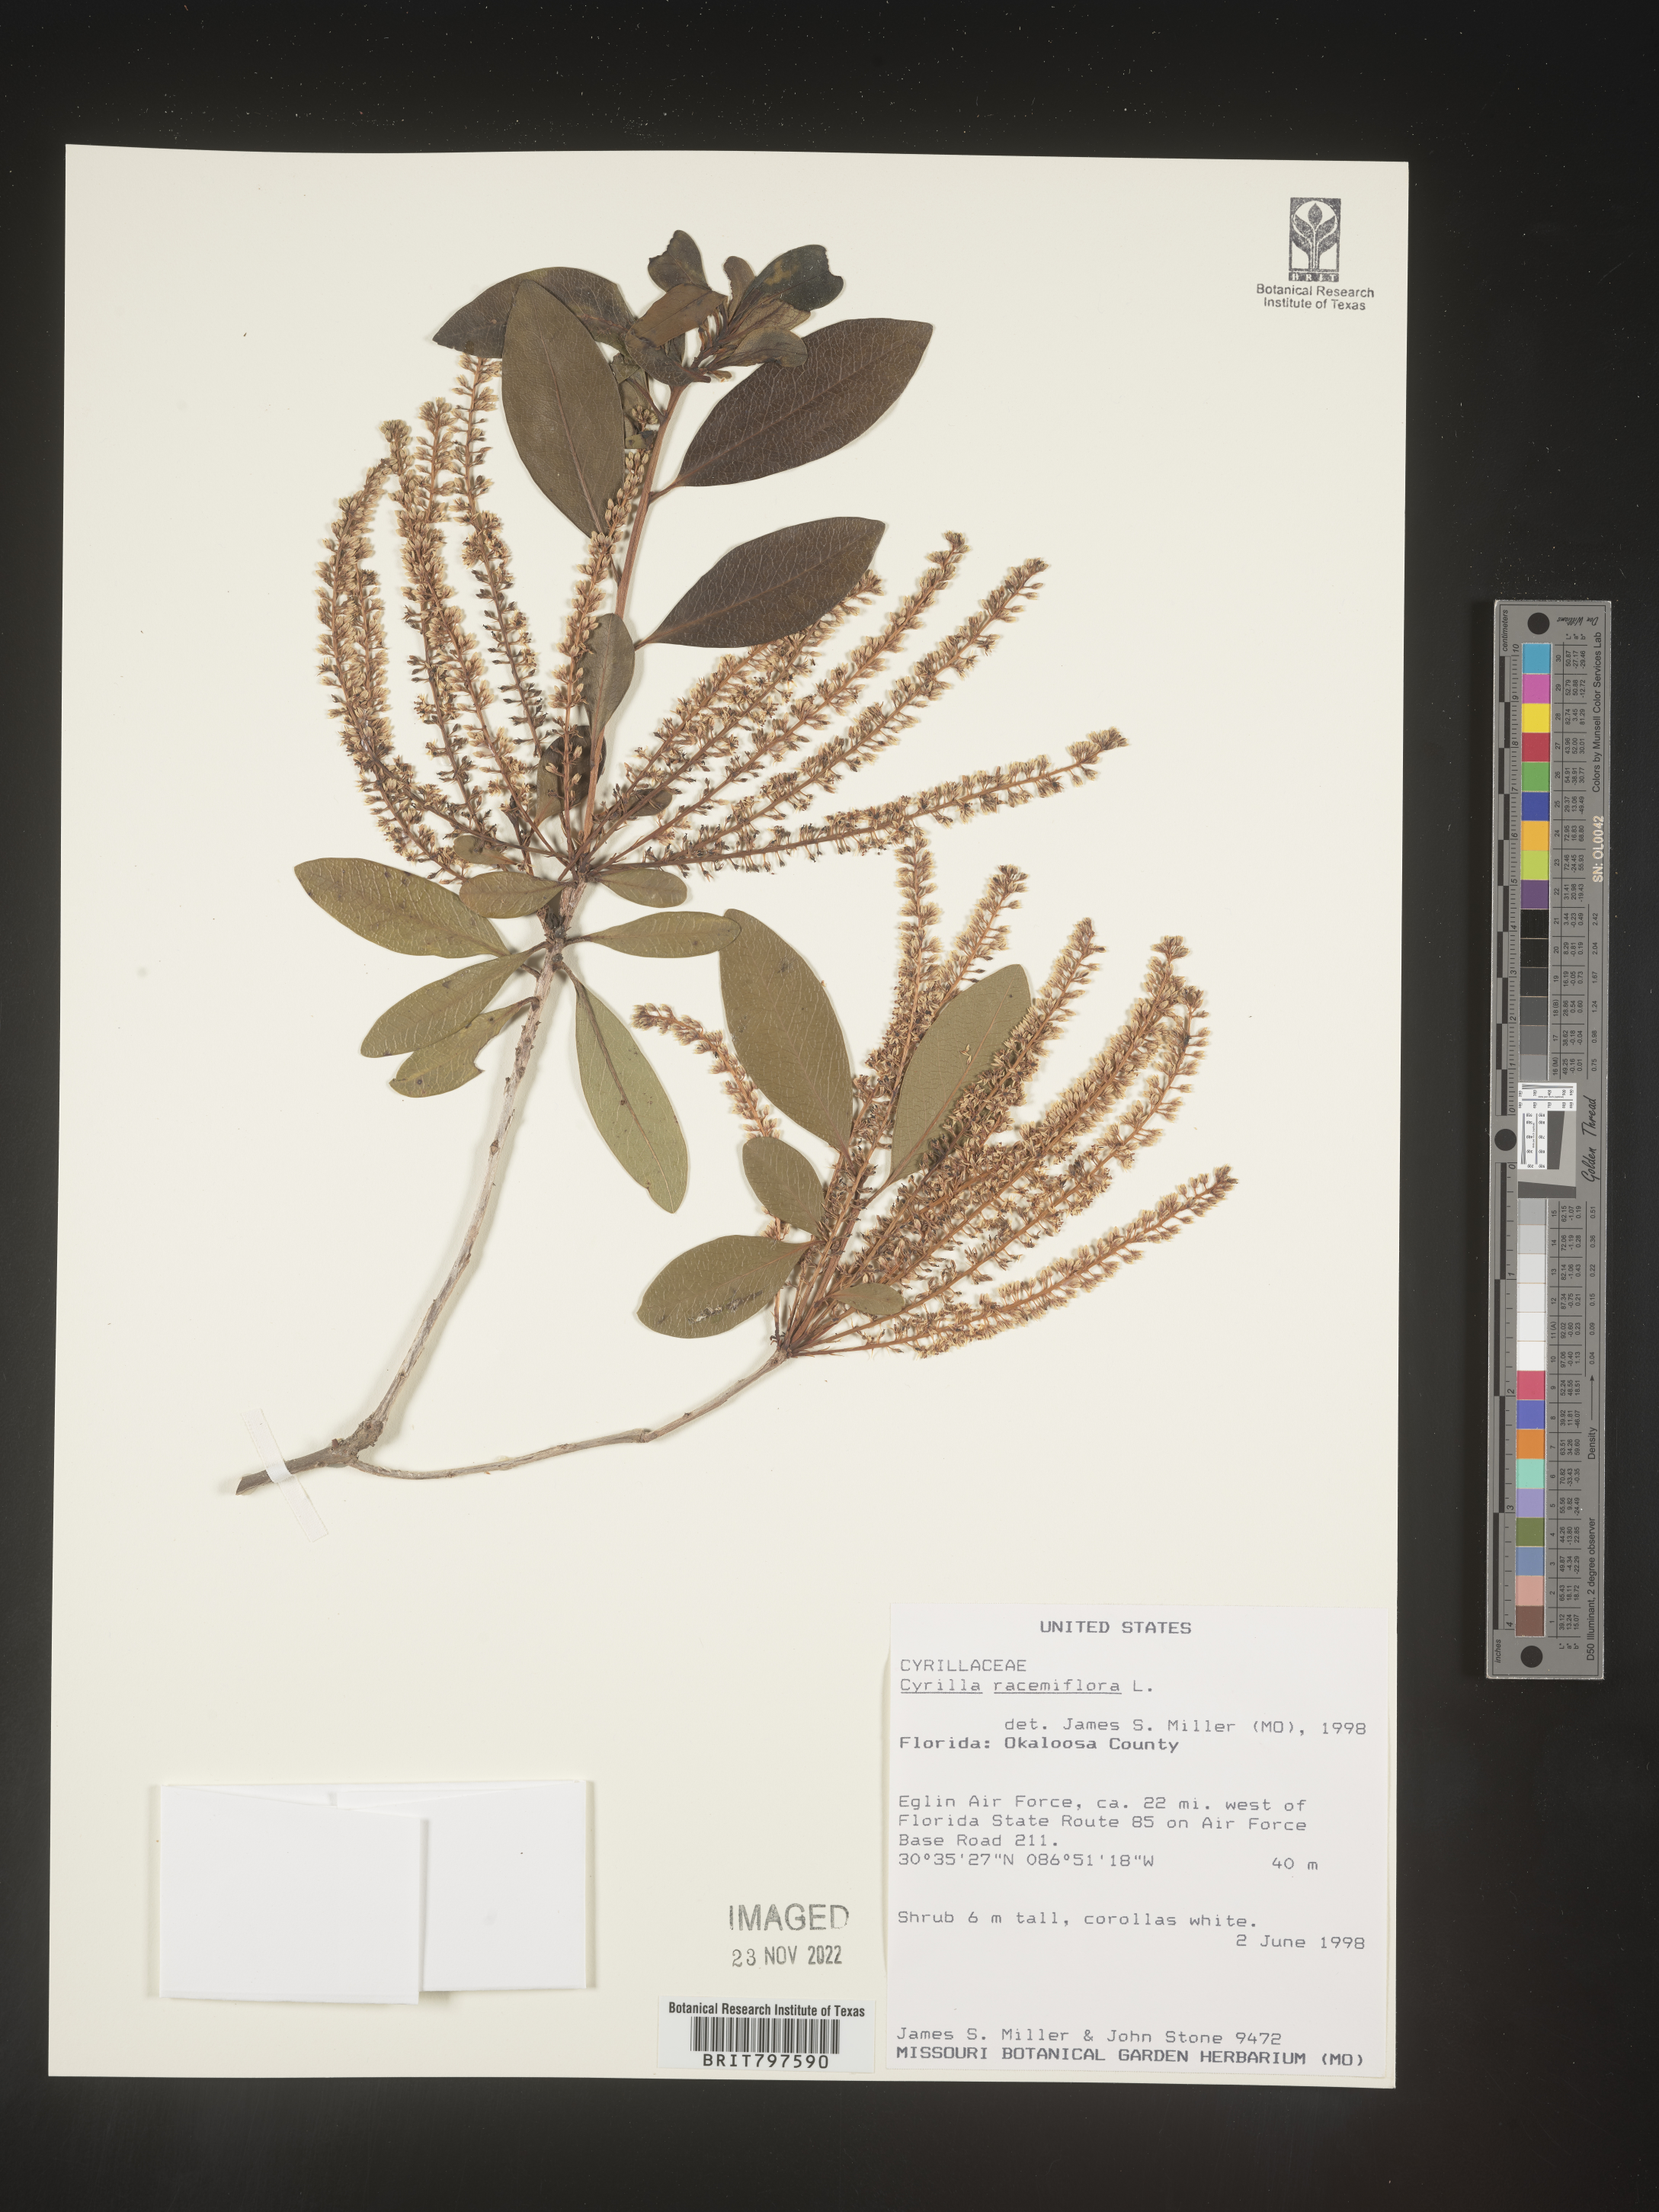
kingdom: Plantae
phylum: Tracheophyta
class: Magnoliopsida
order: Ericales
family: Cyrillaceae
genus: Cyrilla
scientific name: Cyrilla racemiflora
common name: Black titi
